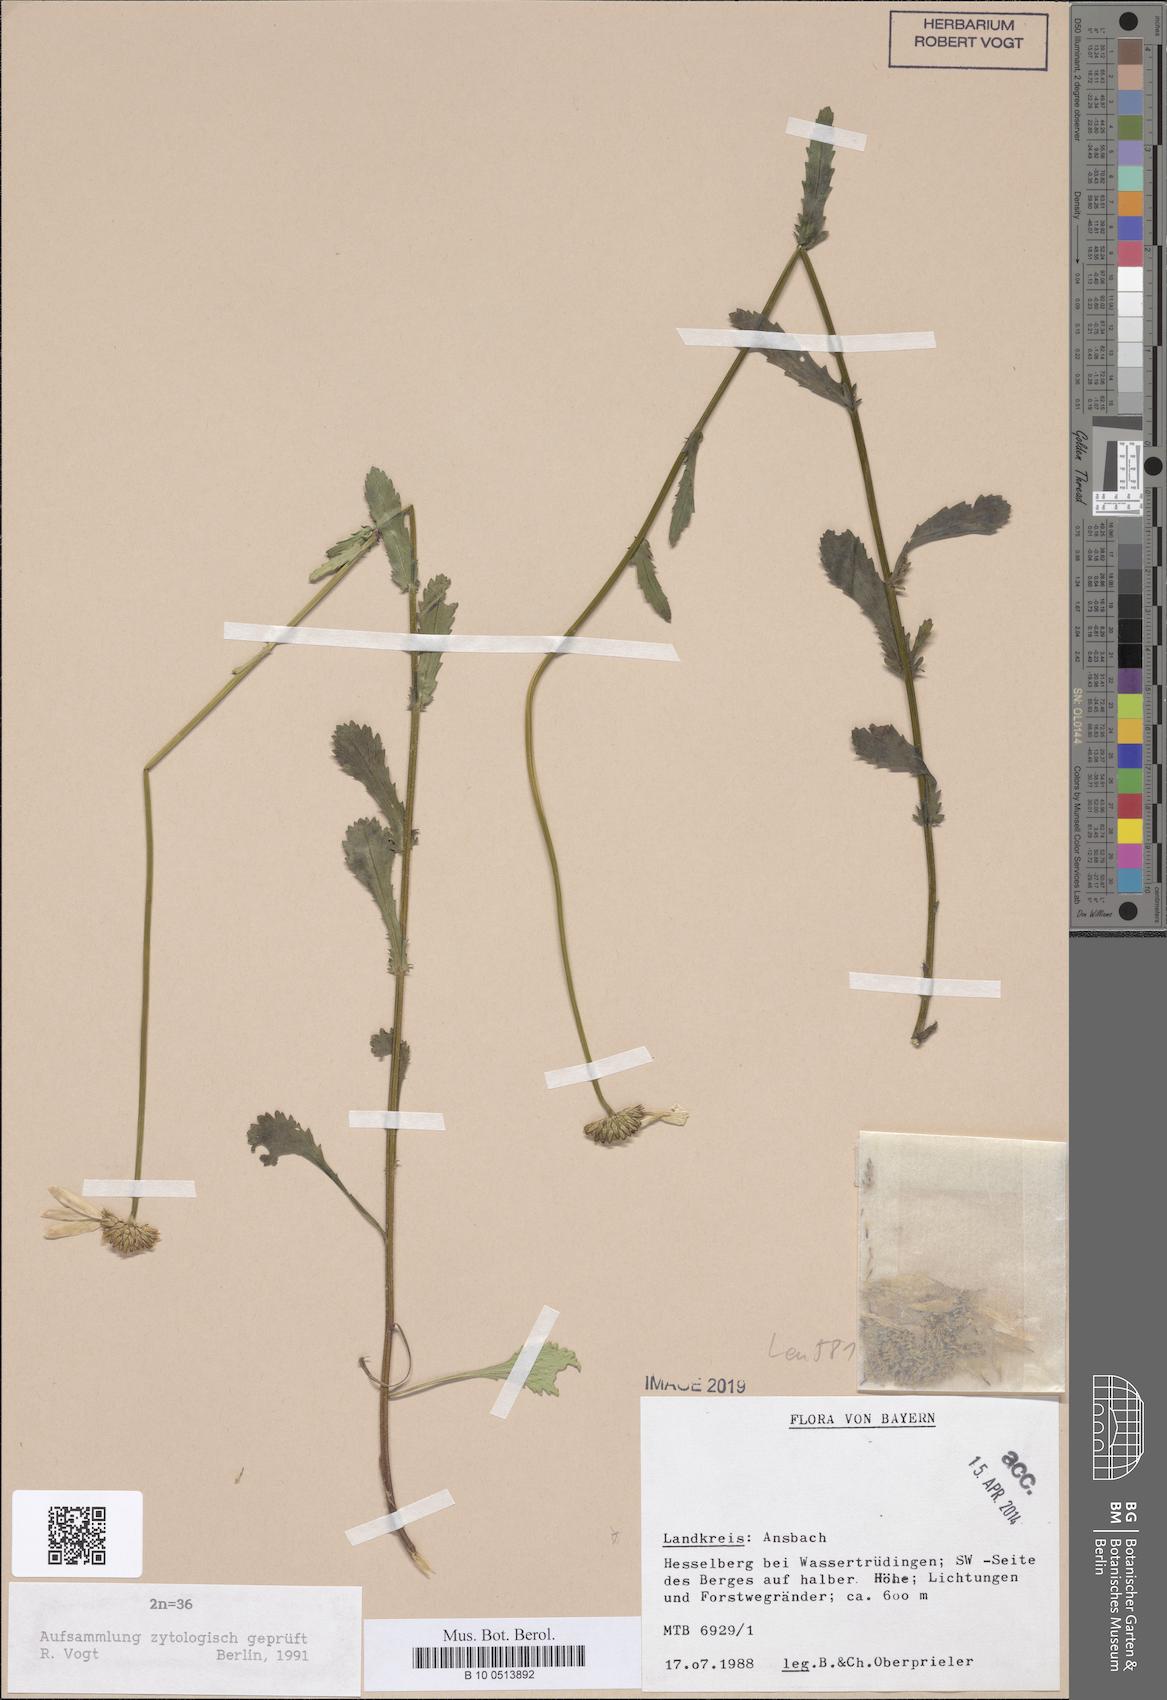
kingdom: Plantae
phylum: Tracheophyta
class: Magnoliopsida
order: Asterales
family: Asteraceae
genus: Leucanthemum
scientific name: Leucanthemum ircutianum
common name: Daisy
